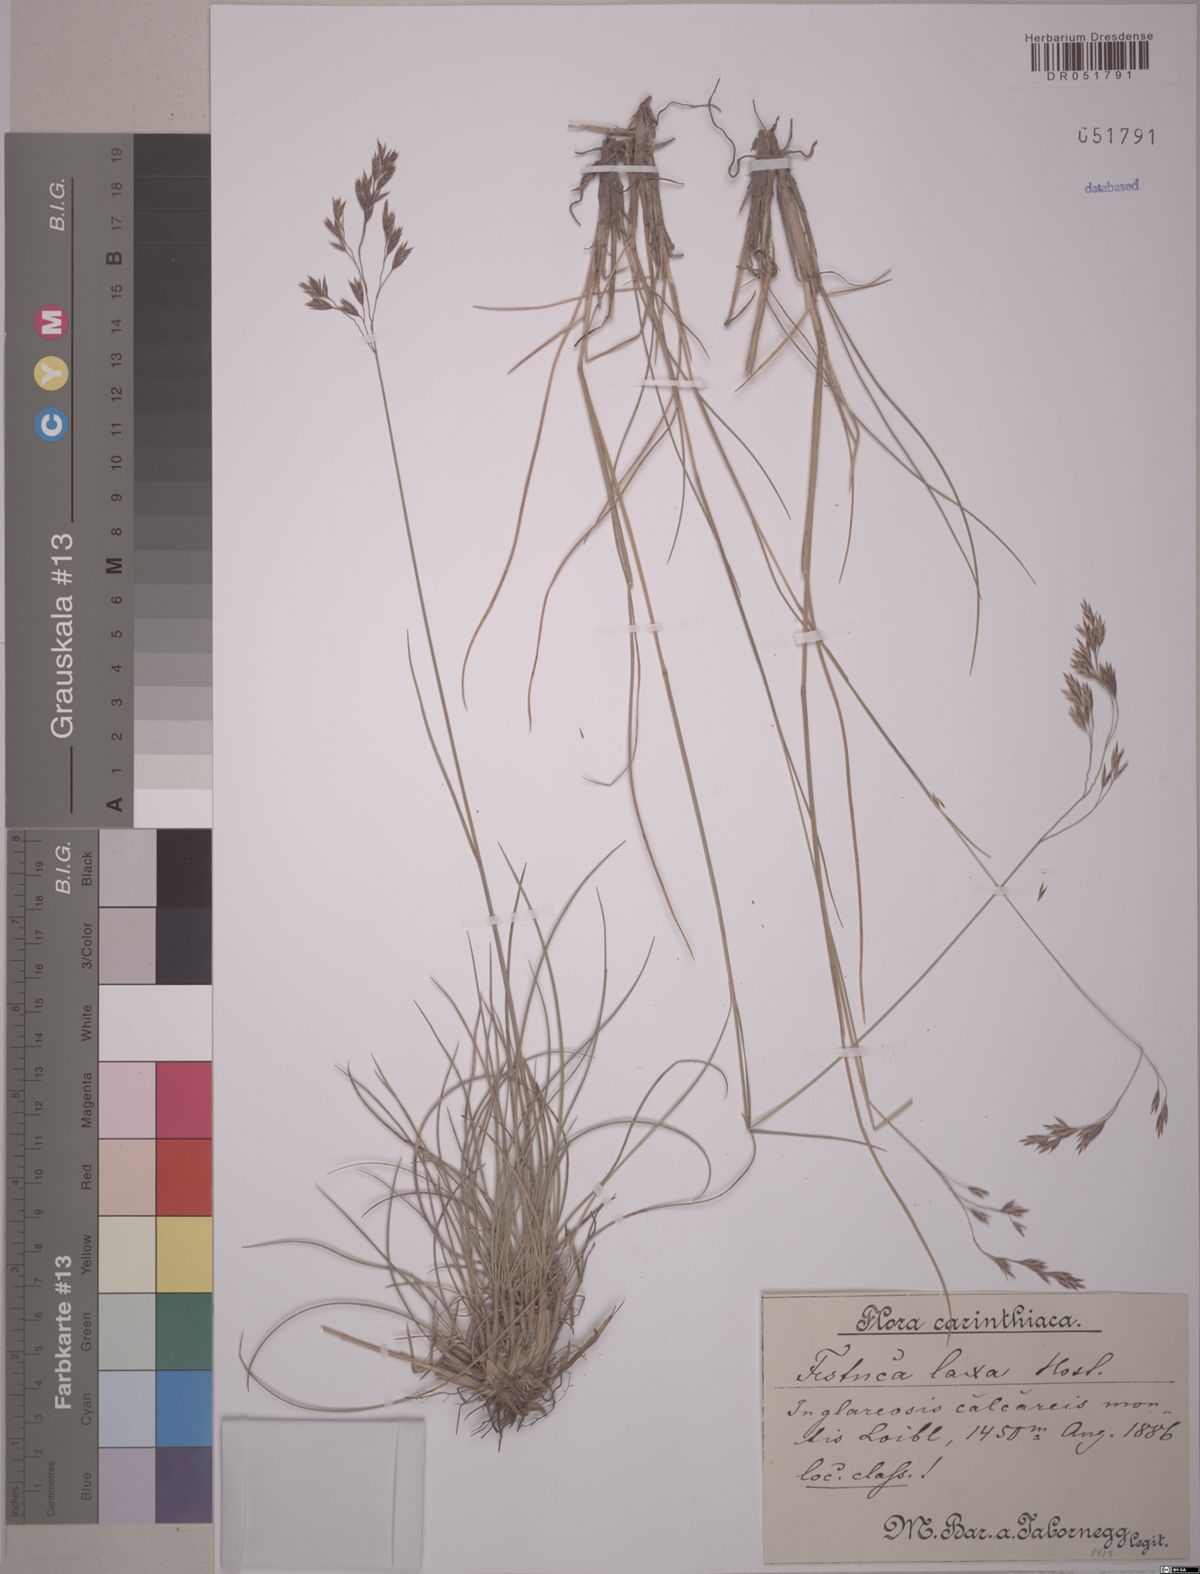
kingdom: Plantae
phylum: Tracheophyta
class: Liliopsida
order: Poales
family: Poaceae
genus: Festuca
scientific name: Festuca laxa
